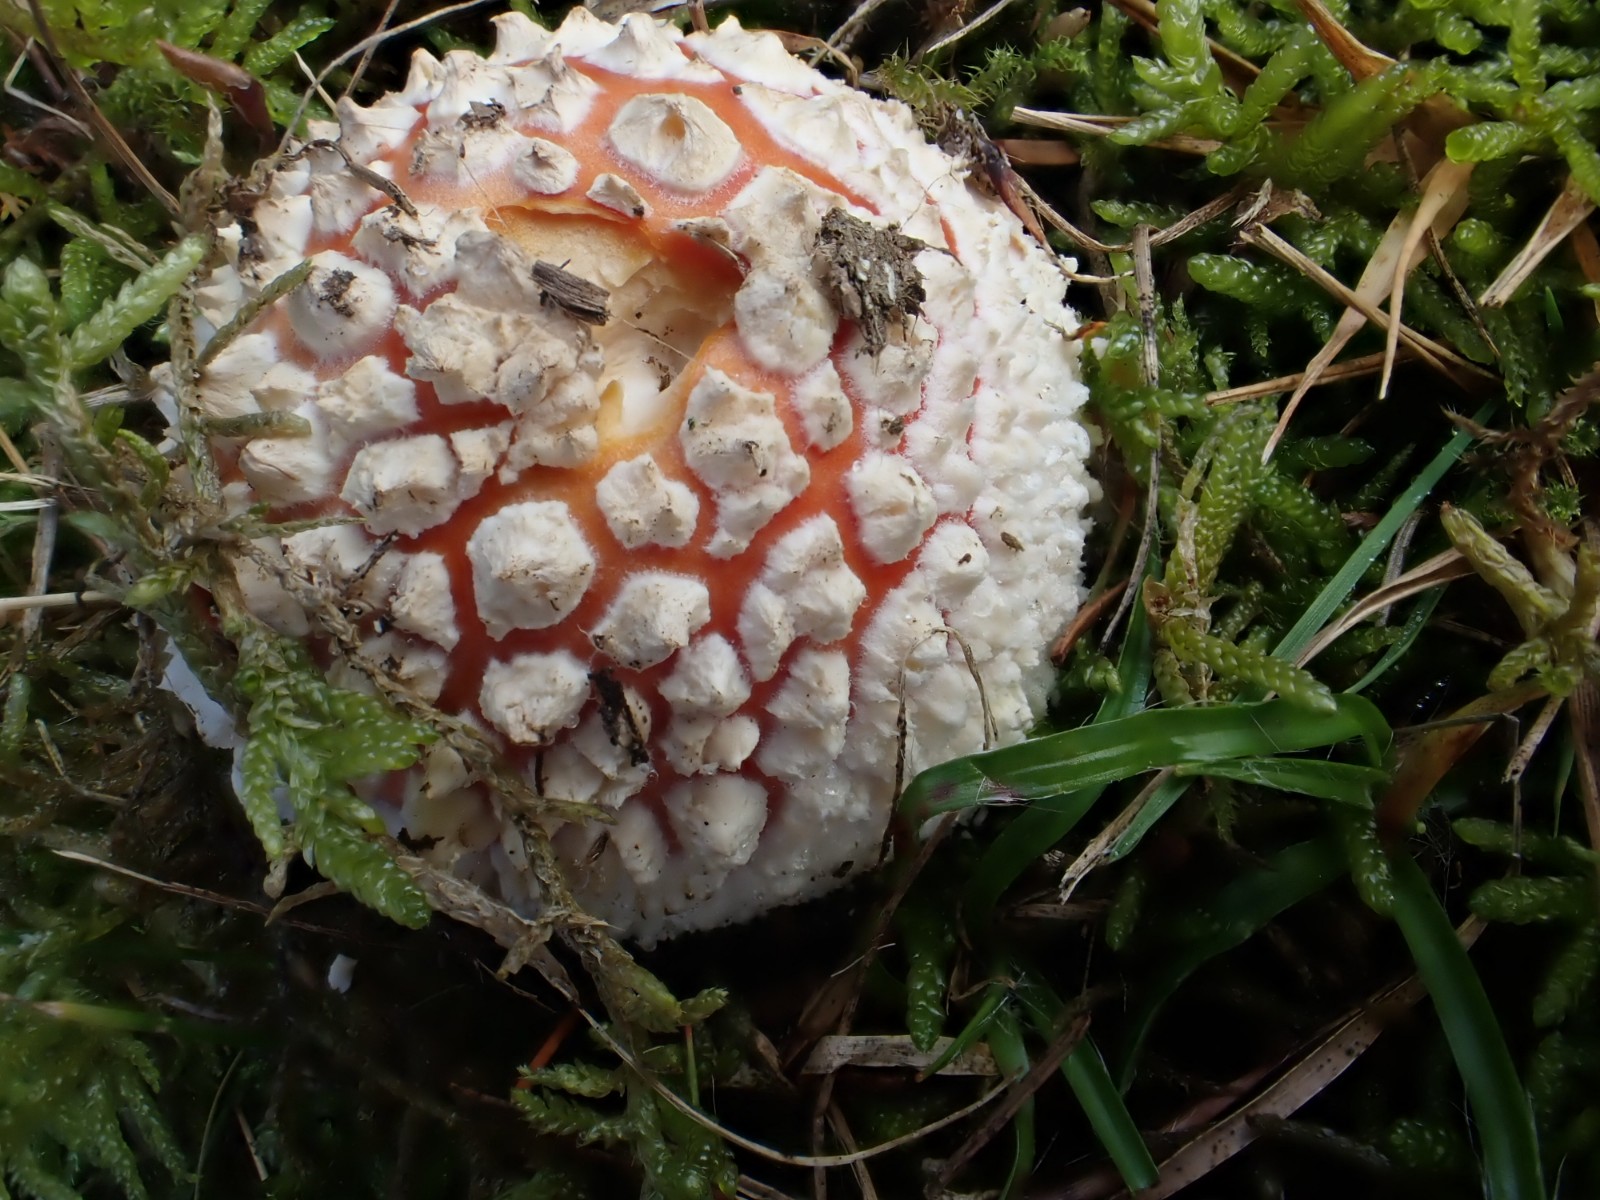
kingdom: Fungi
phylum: Basidiomycota
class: Agaricomycetes
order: Agaricales
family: Amanitaceae
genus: Amanita
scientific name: Amanita muscaria
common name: rød fluesvamp
